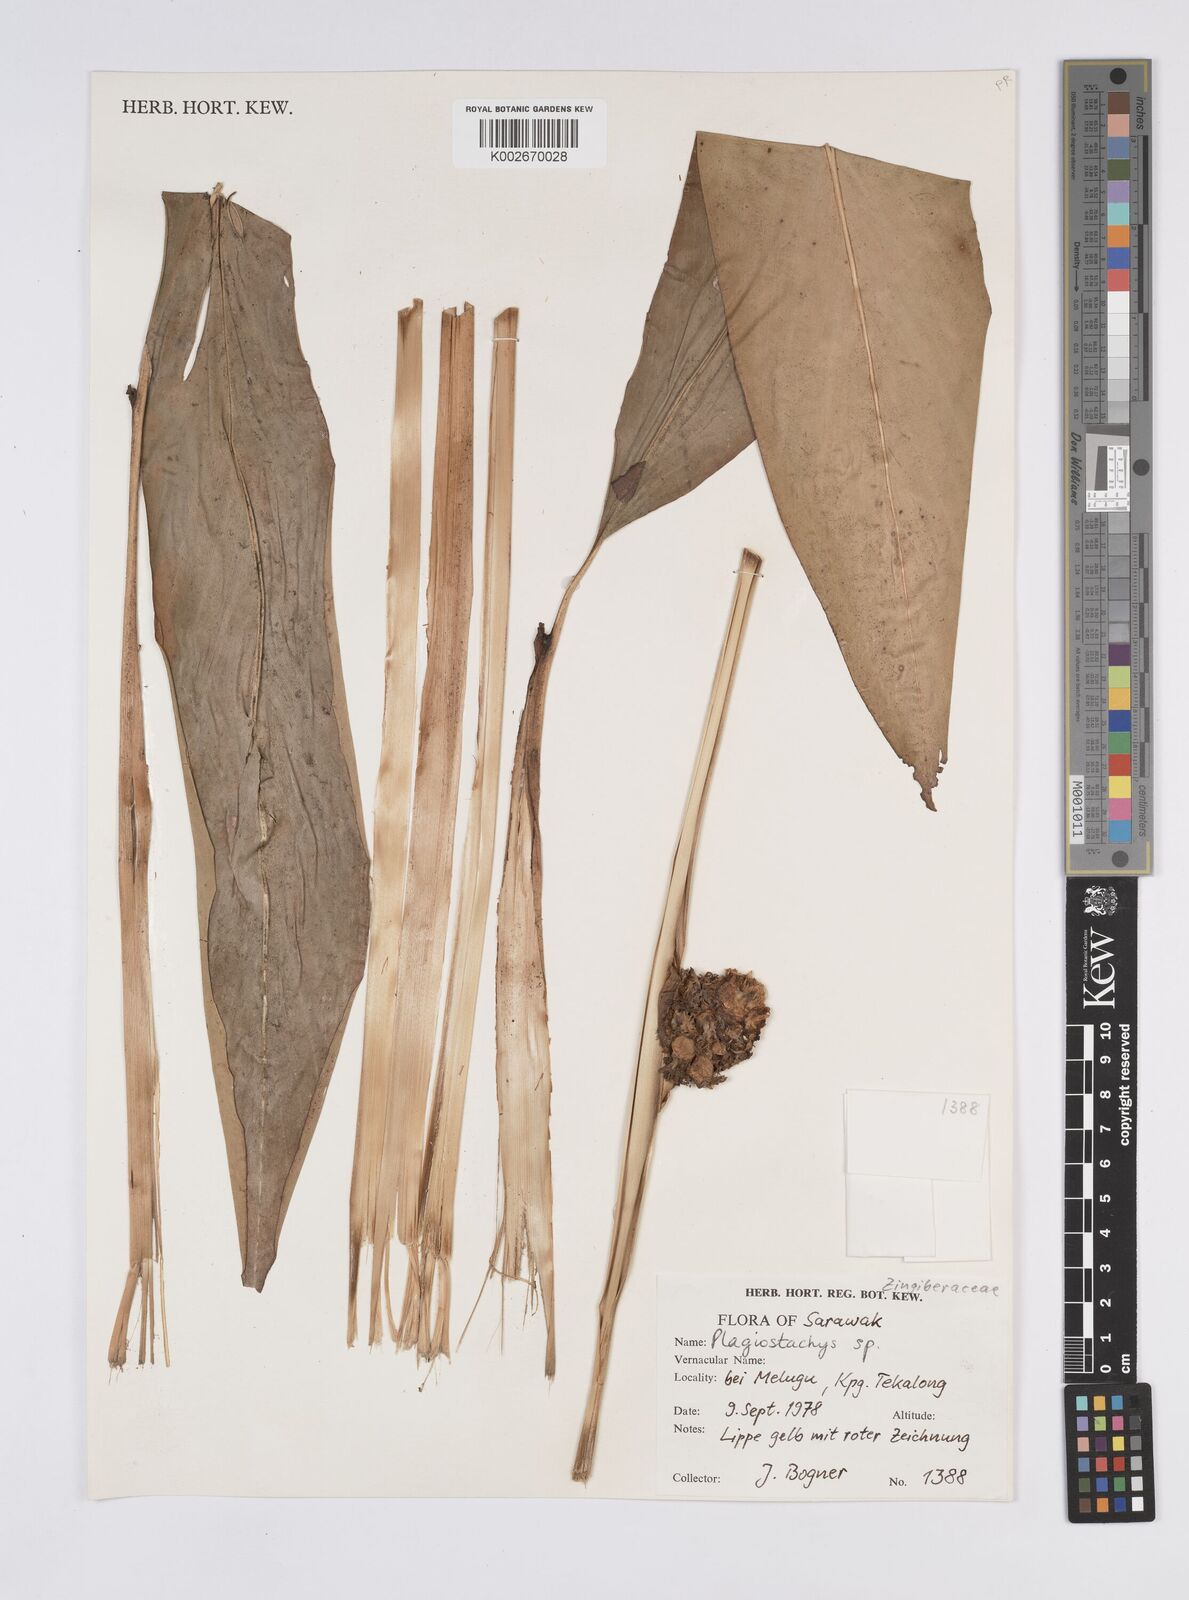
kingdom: Plantae
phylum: Tracheophyta
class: Liliopsida
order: Zingiberales
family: Zingiberaceae
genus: Plagiostachys
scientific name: Plagiostachys
